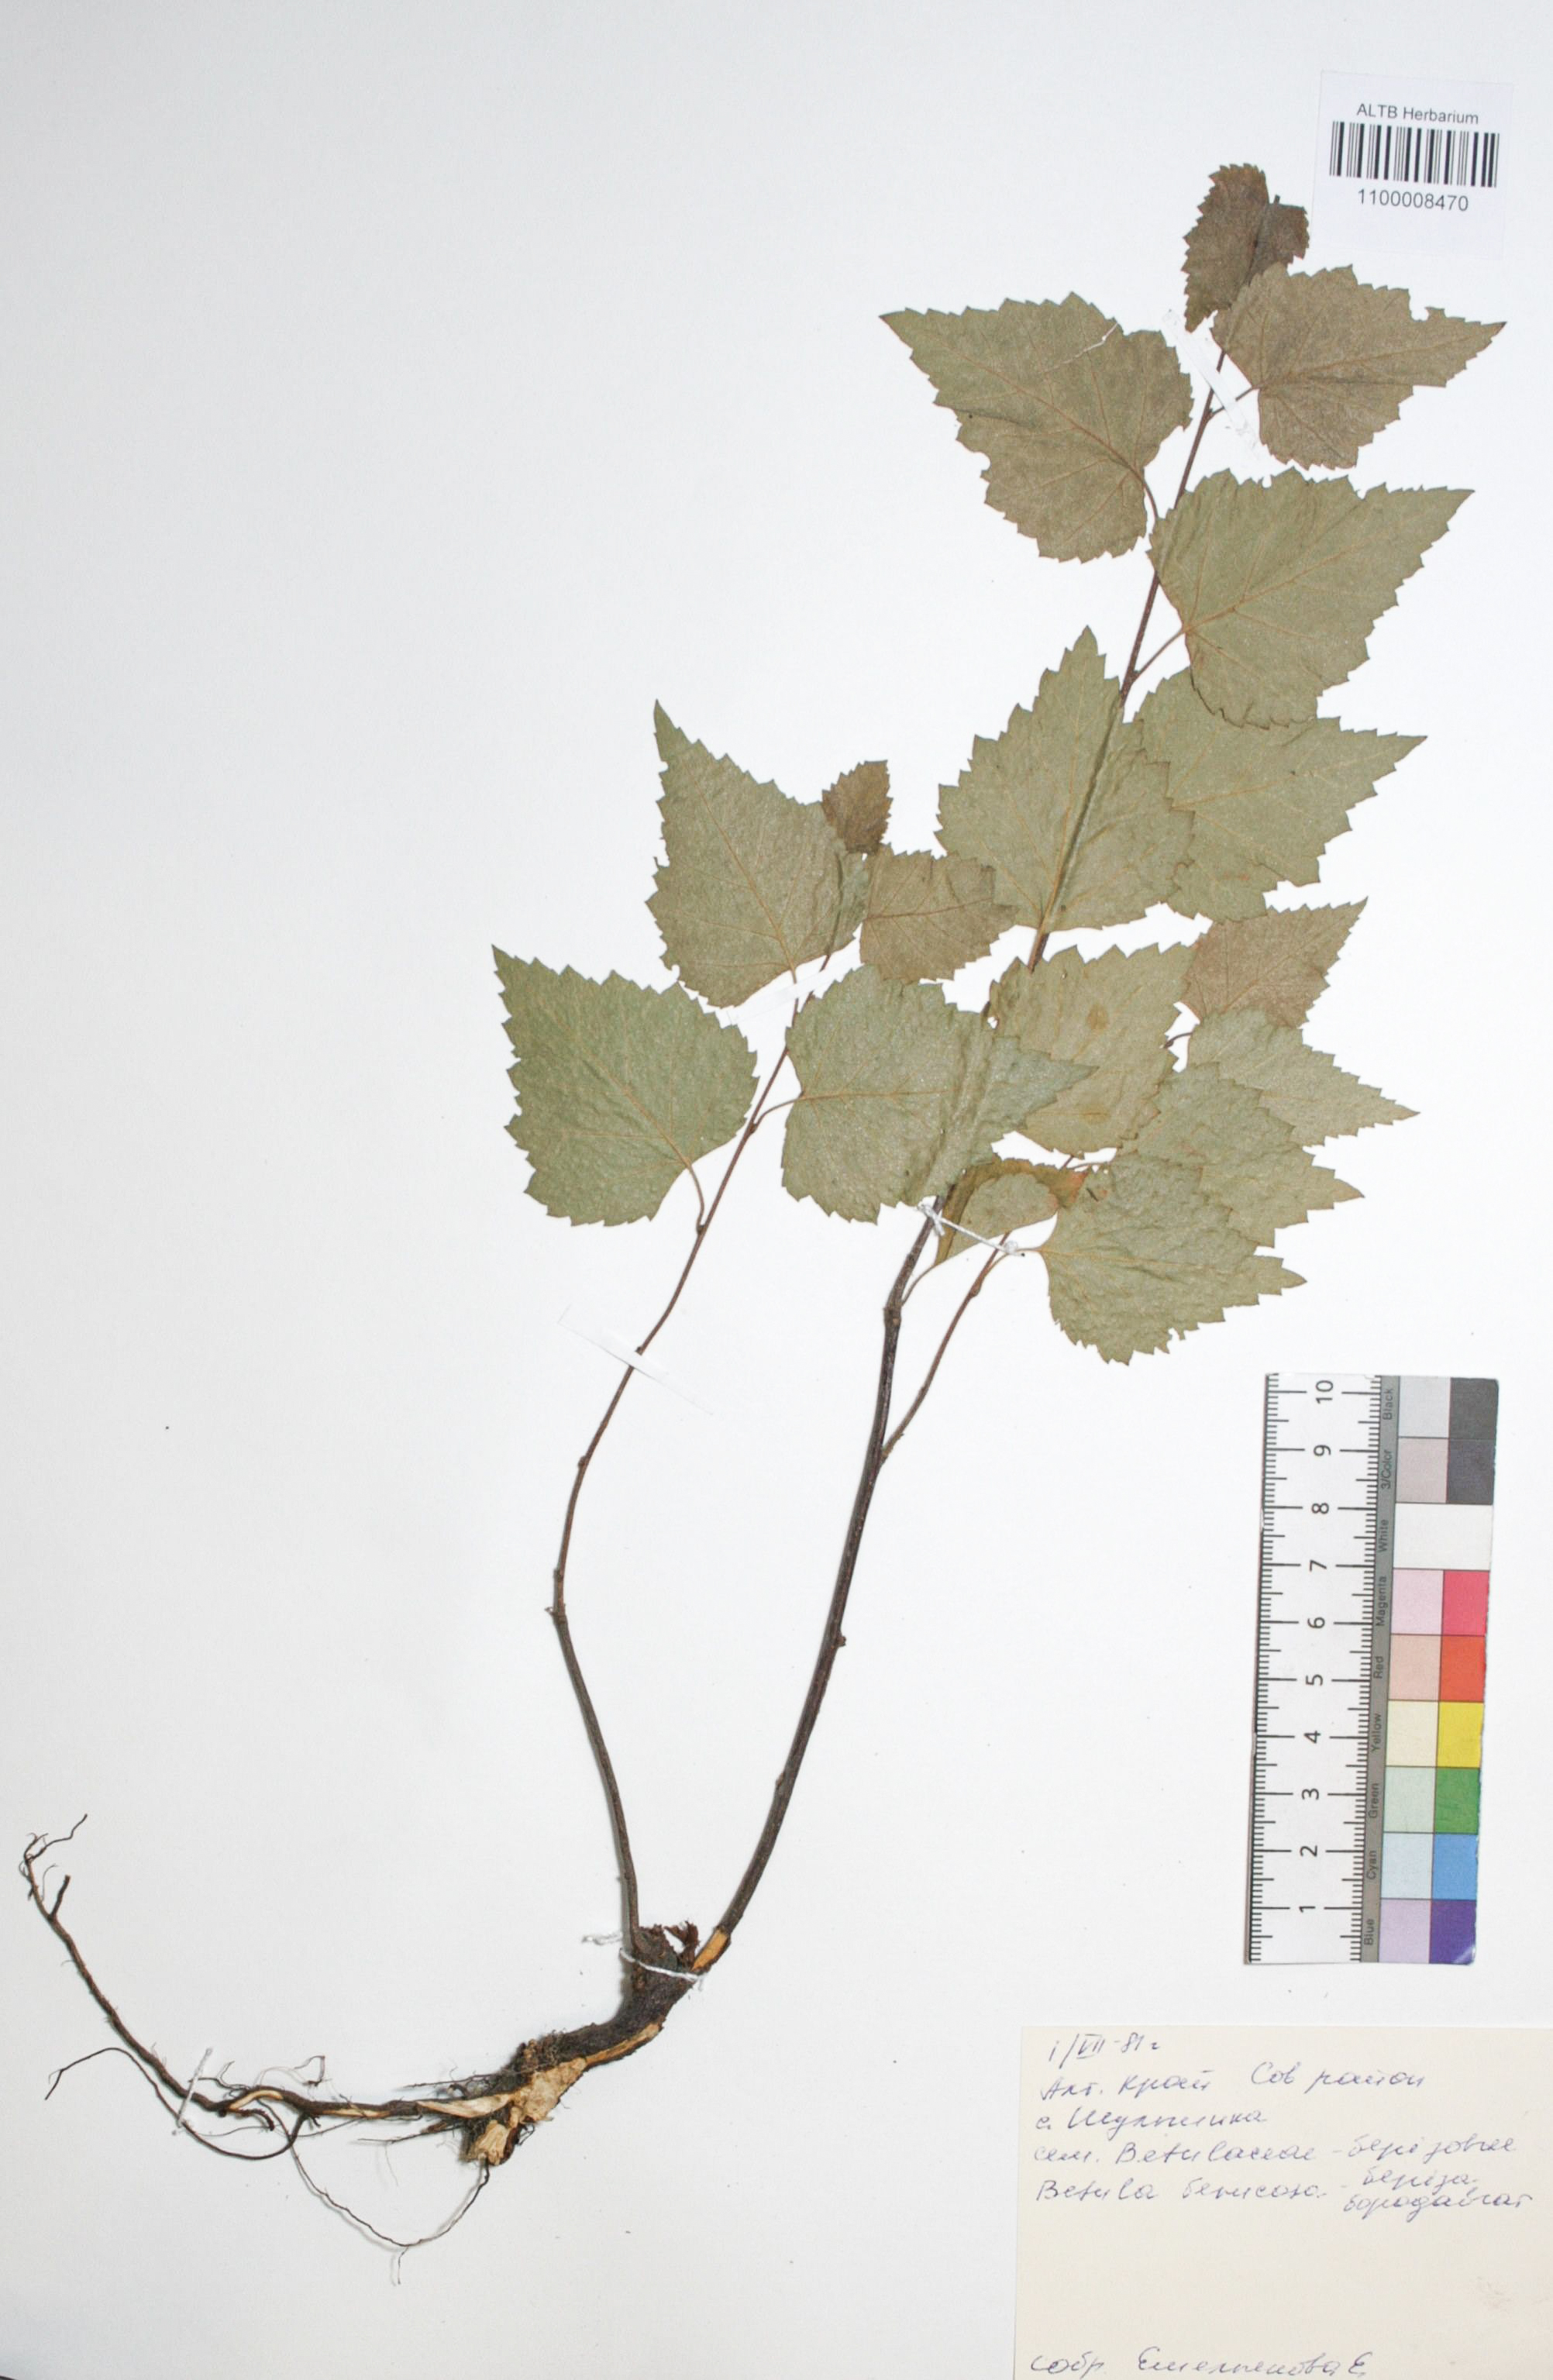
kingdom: Plantae
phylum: Tracheophyta
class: Magnoliopsida
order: Fagales
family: Betulaceae
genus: Betula
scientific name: Betula pendula
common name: Silver birch
